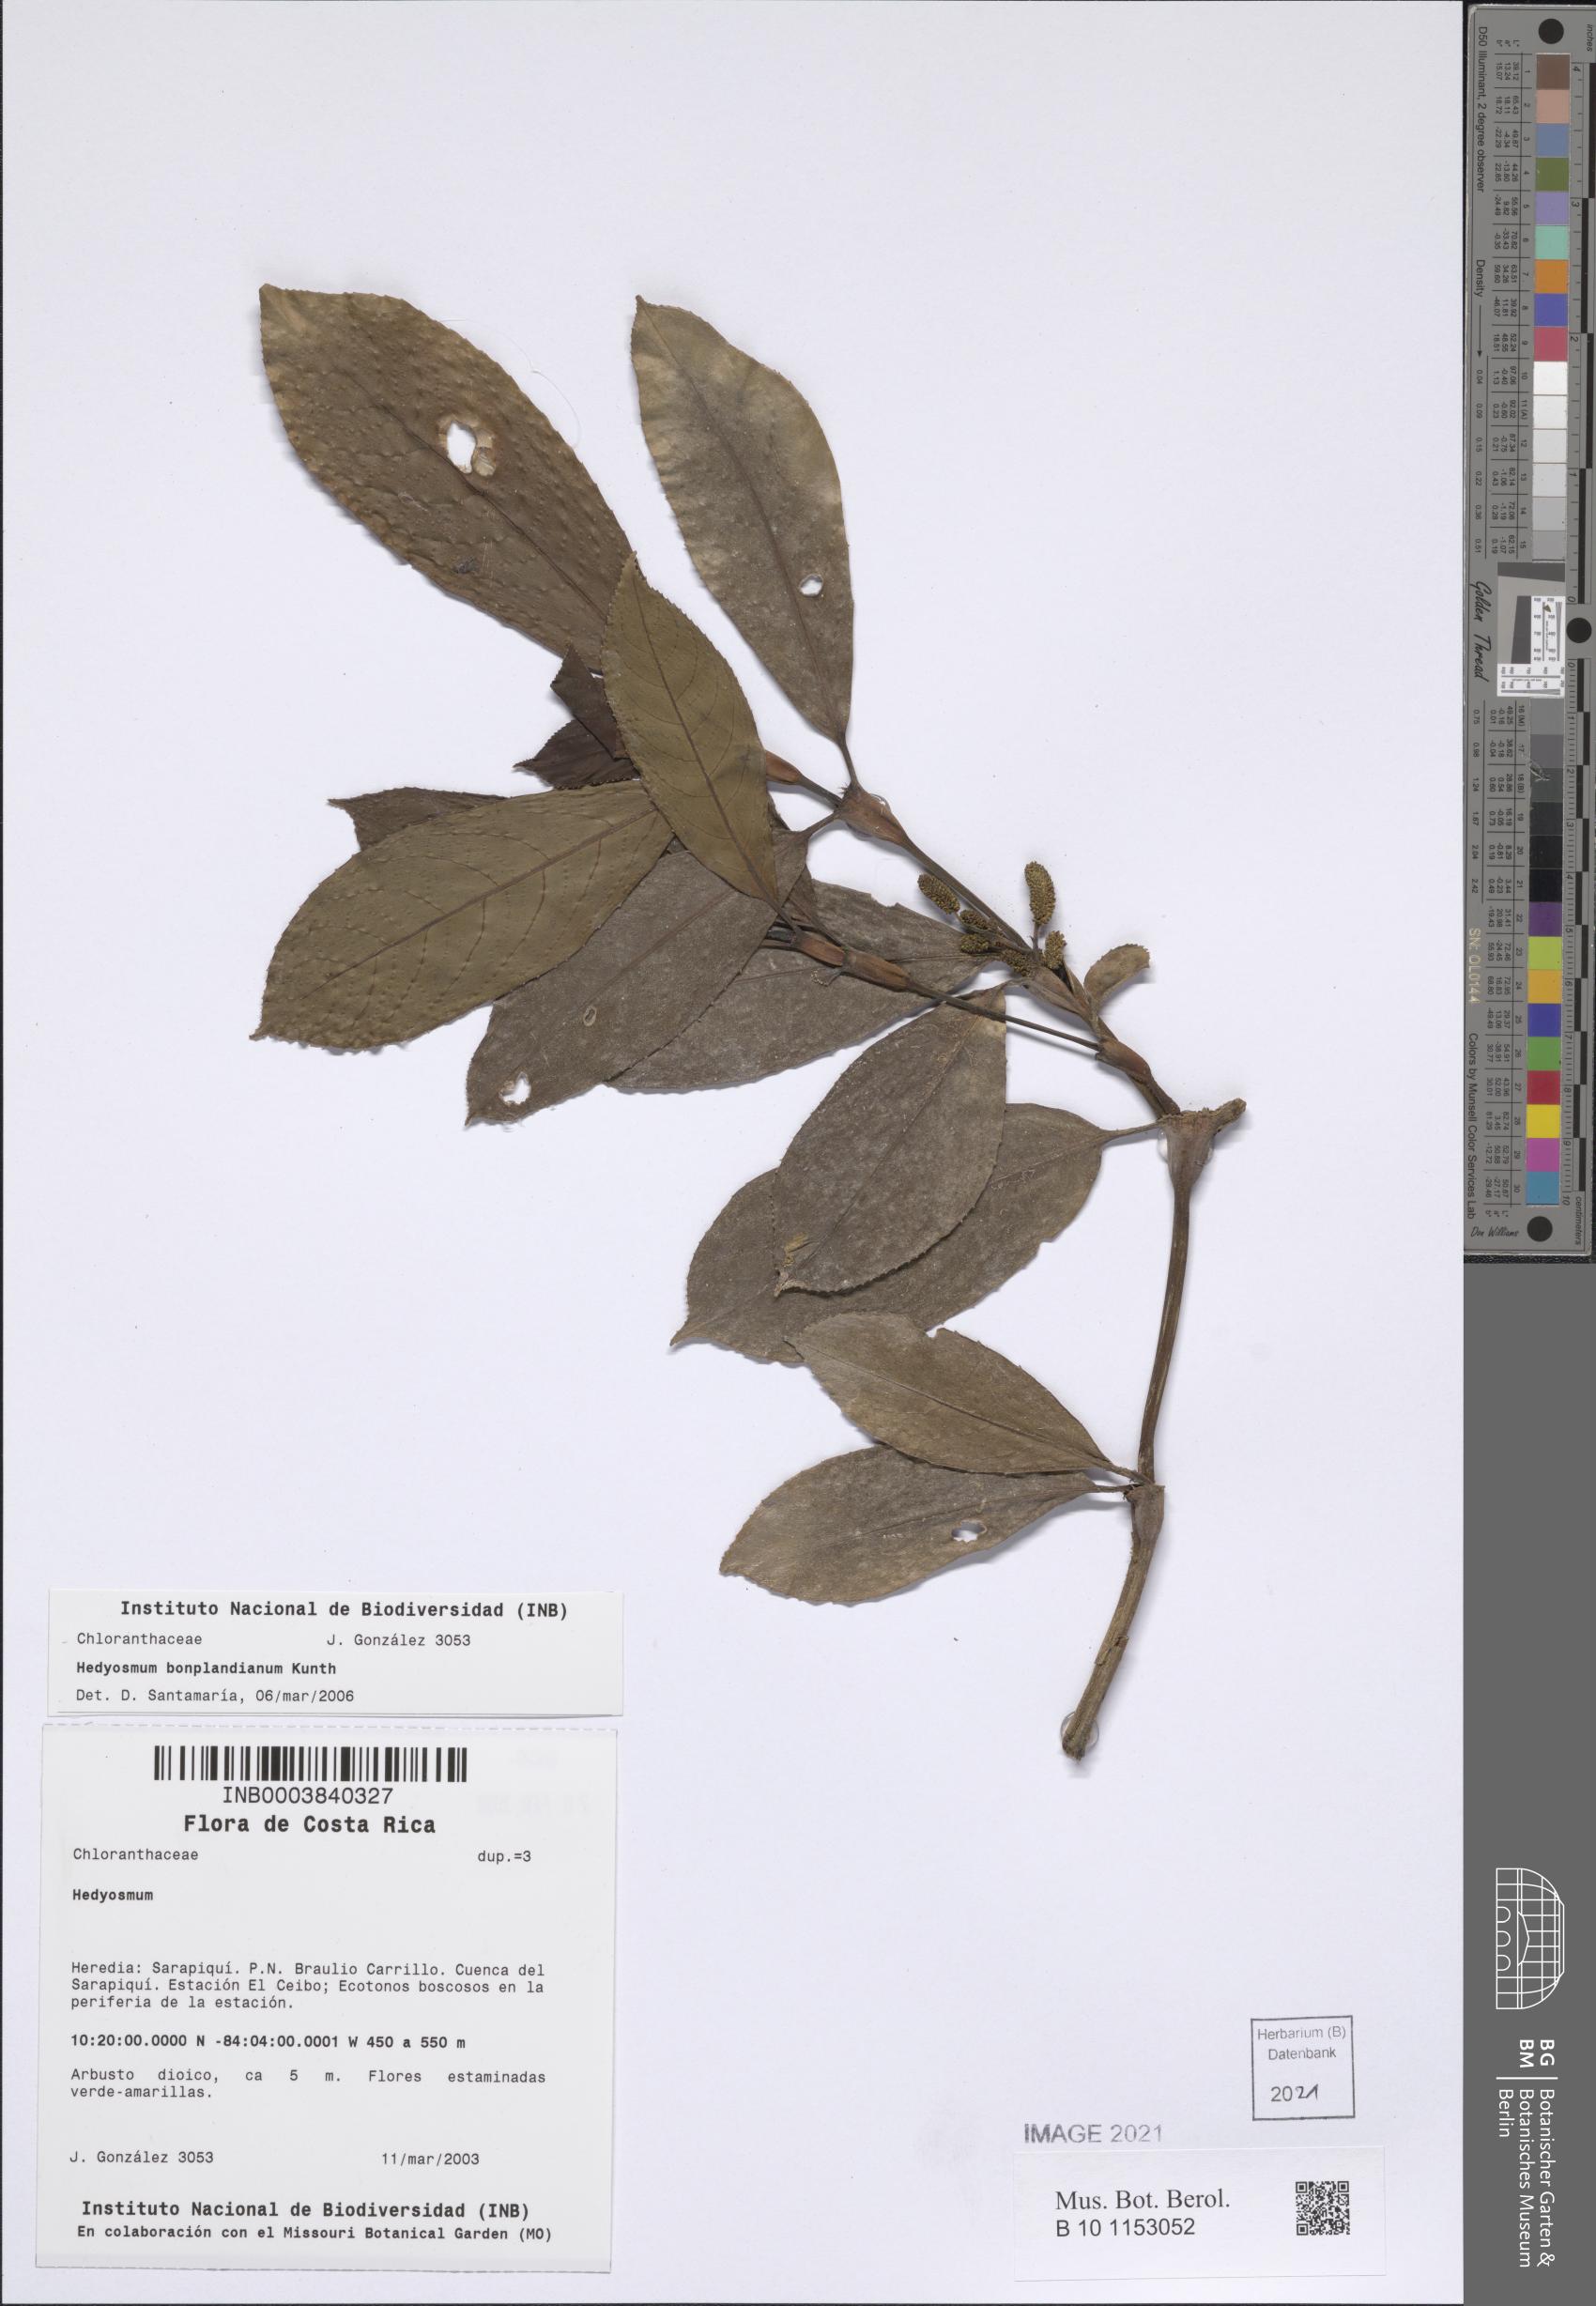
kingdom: Plantae
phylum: Tracheophyta
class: Magnoliopsida
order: Chloranthales
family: Chloranthaceae
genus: Hedyosmum
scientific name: Hedyosmum bonplandianum
